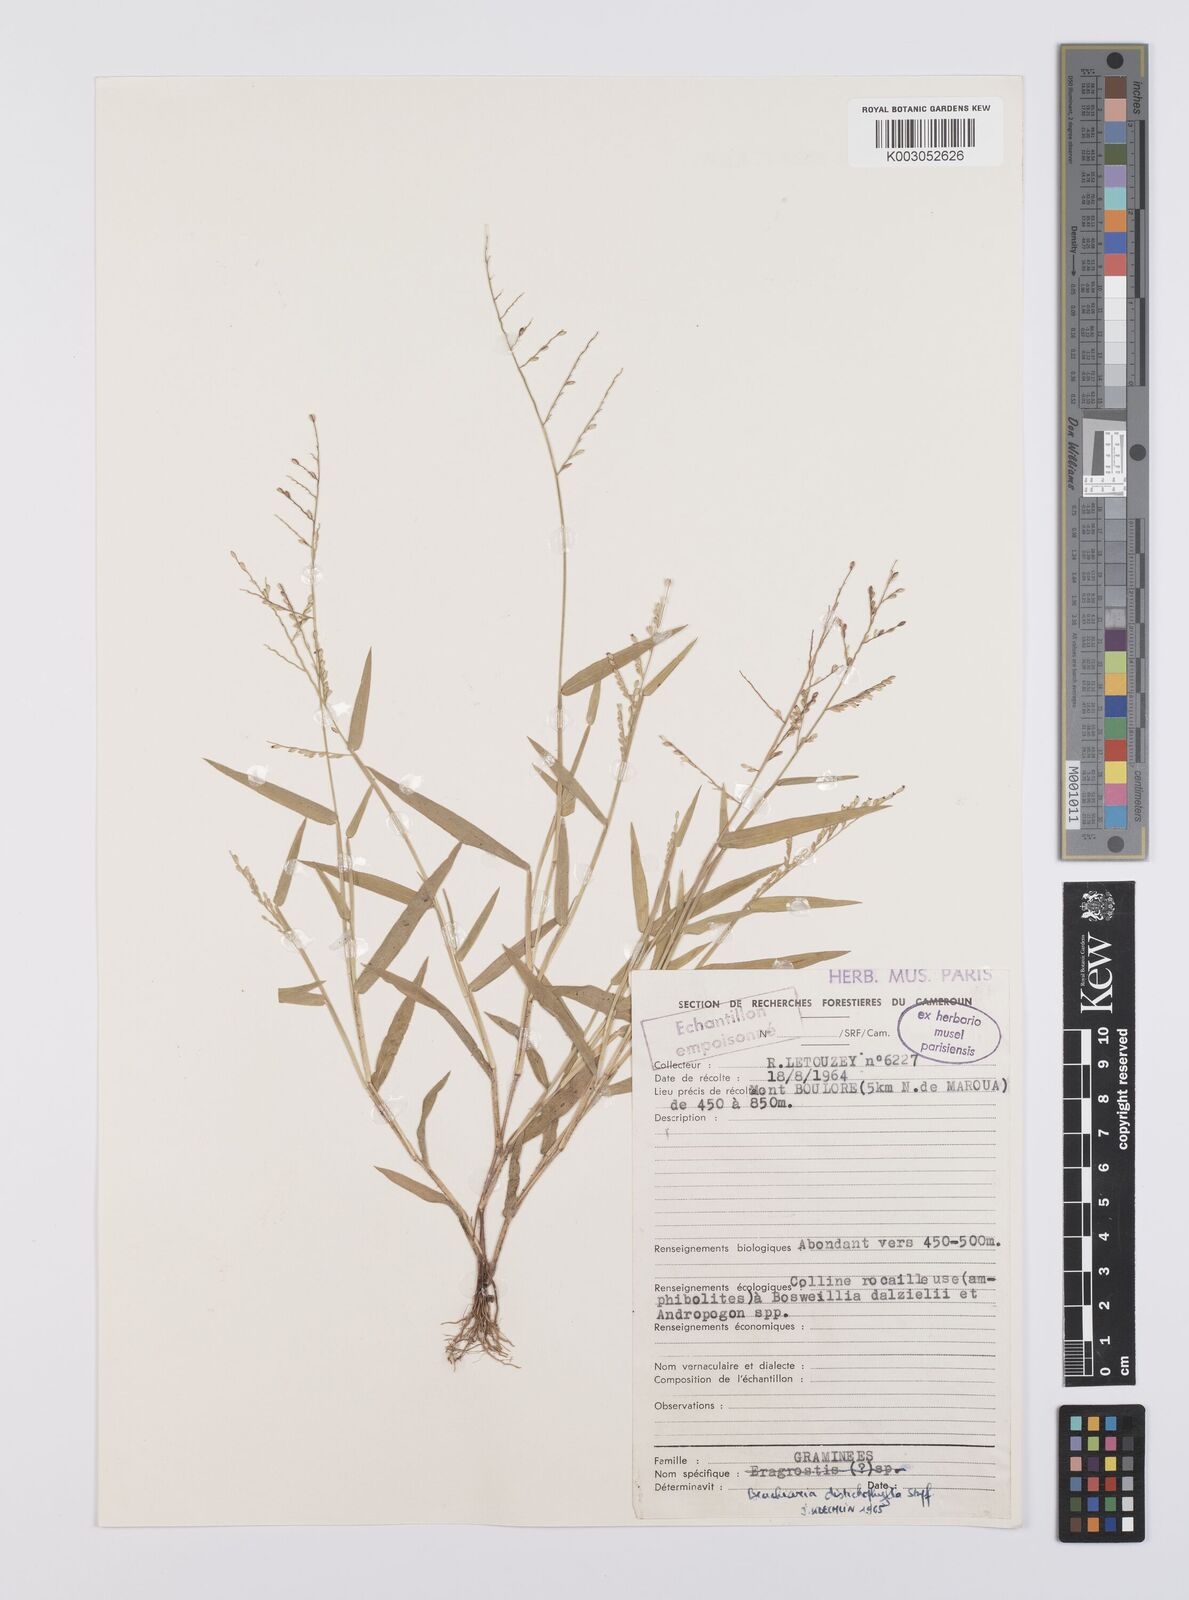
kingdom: Plantae
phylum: Tracheophyta
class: Liliopsida
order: Poales
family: Poaceae
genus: Urochloa
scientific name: Urochloa villosa
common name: Hairy signalgrass
